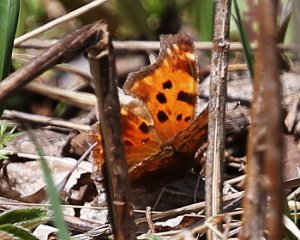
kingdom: Animalia
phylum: Arthropoda
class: Insecta
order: Lepidoptera
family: Nymphalidae
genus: Polygonia
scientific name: Polygonia comma
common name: Eastern Comma
